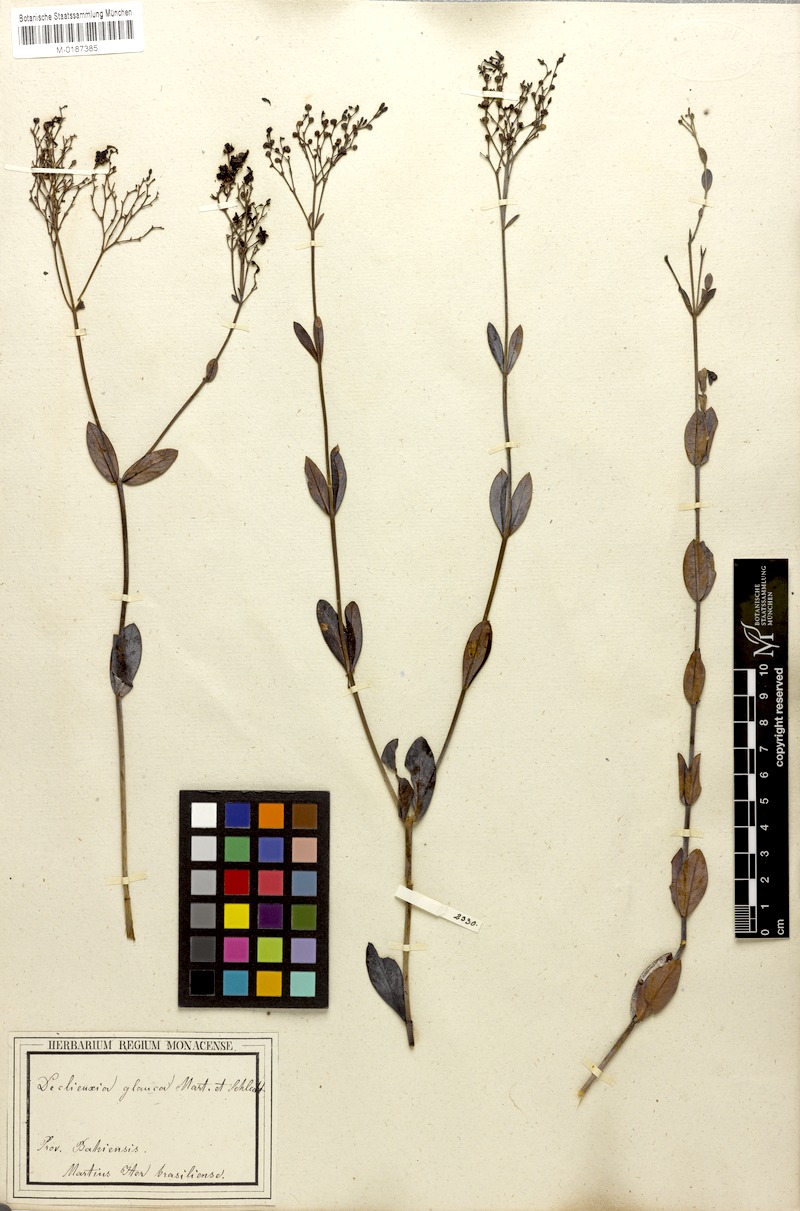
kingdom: Plantae
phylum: Tracheophyta
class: Magnoliopsida
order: Gentianales
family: Rubiaceae
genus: Declieuxia
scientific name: Declieuxia pruinosa
